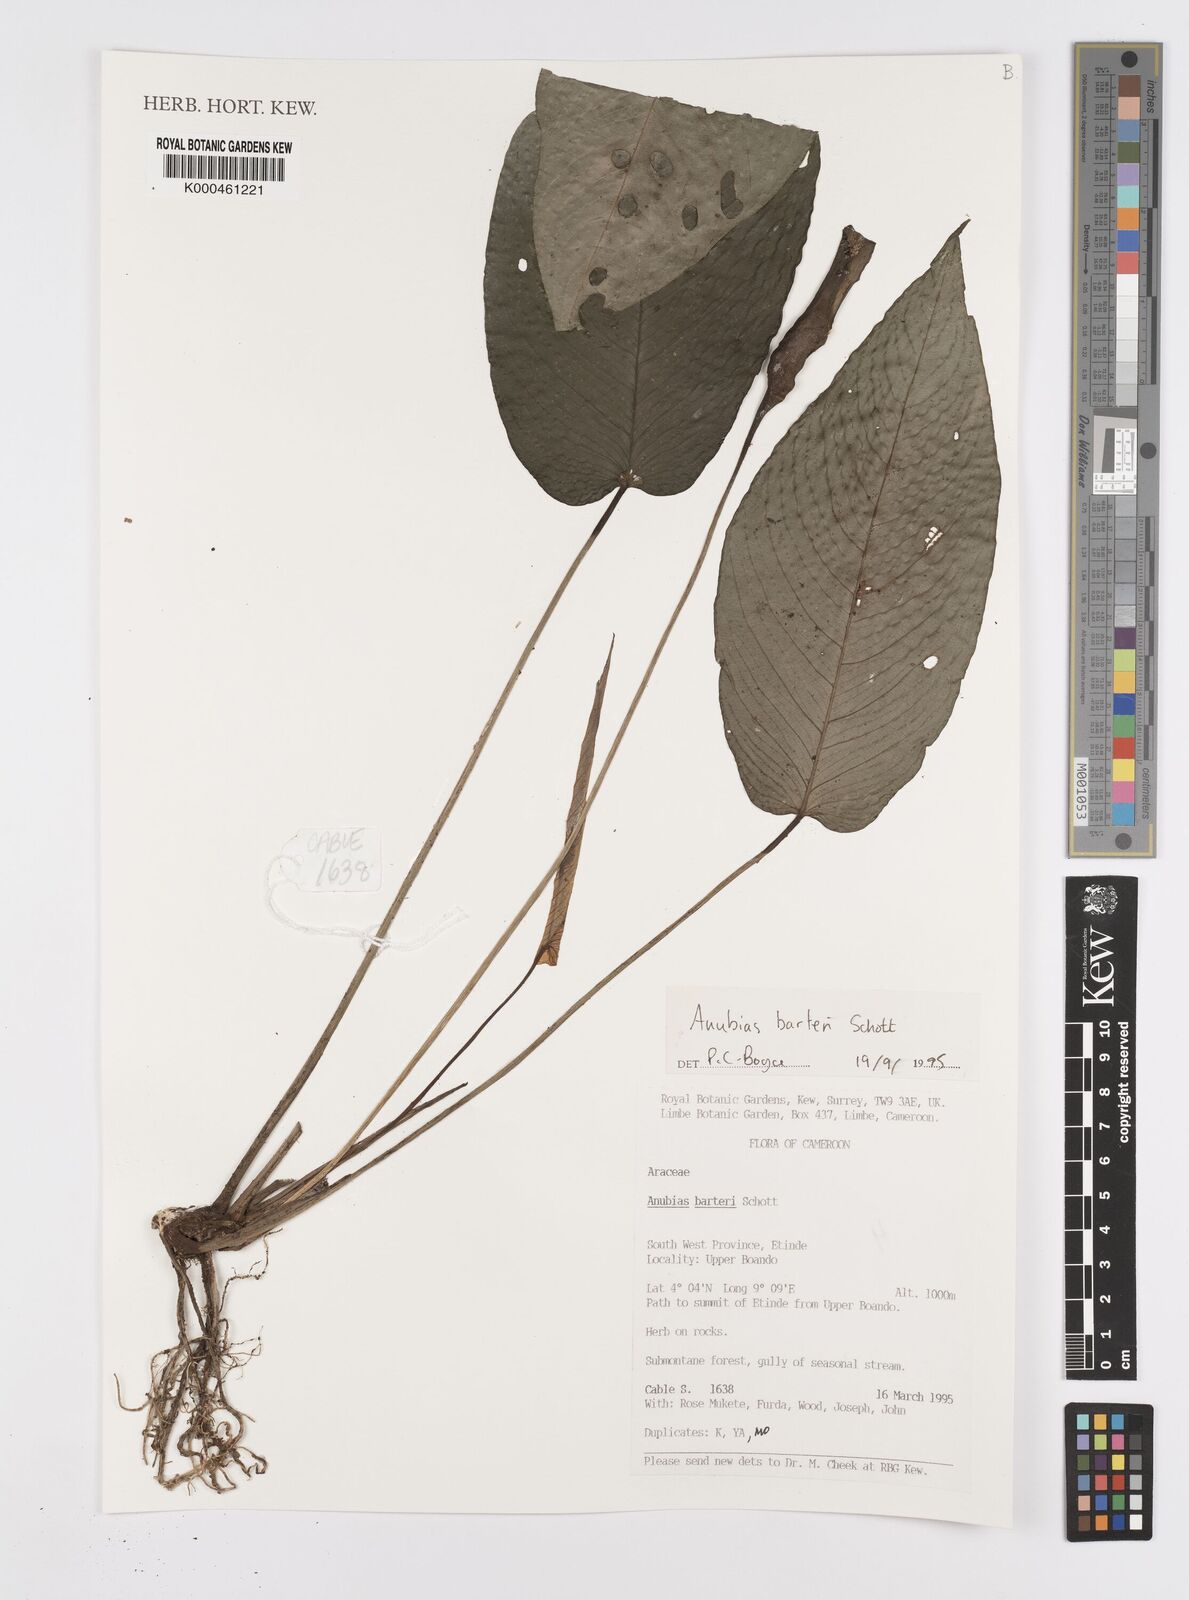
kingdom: Plantae
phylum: Tracheophyta
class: Liliopsida
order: Alismatales
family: Araceae
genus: Anubias
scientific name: Anubias barteri
